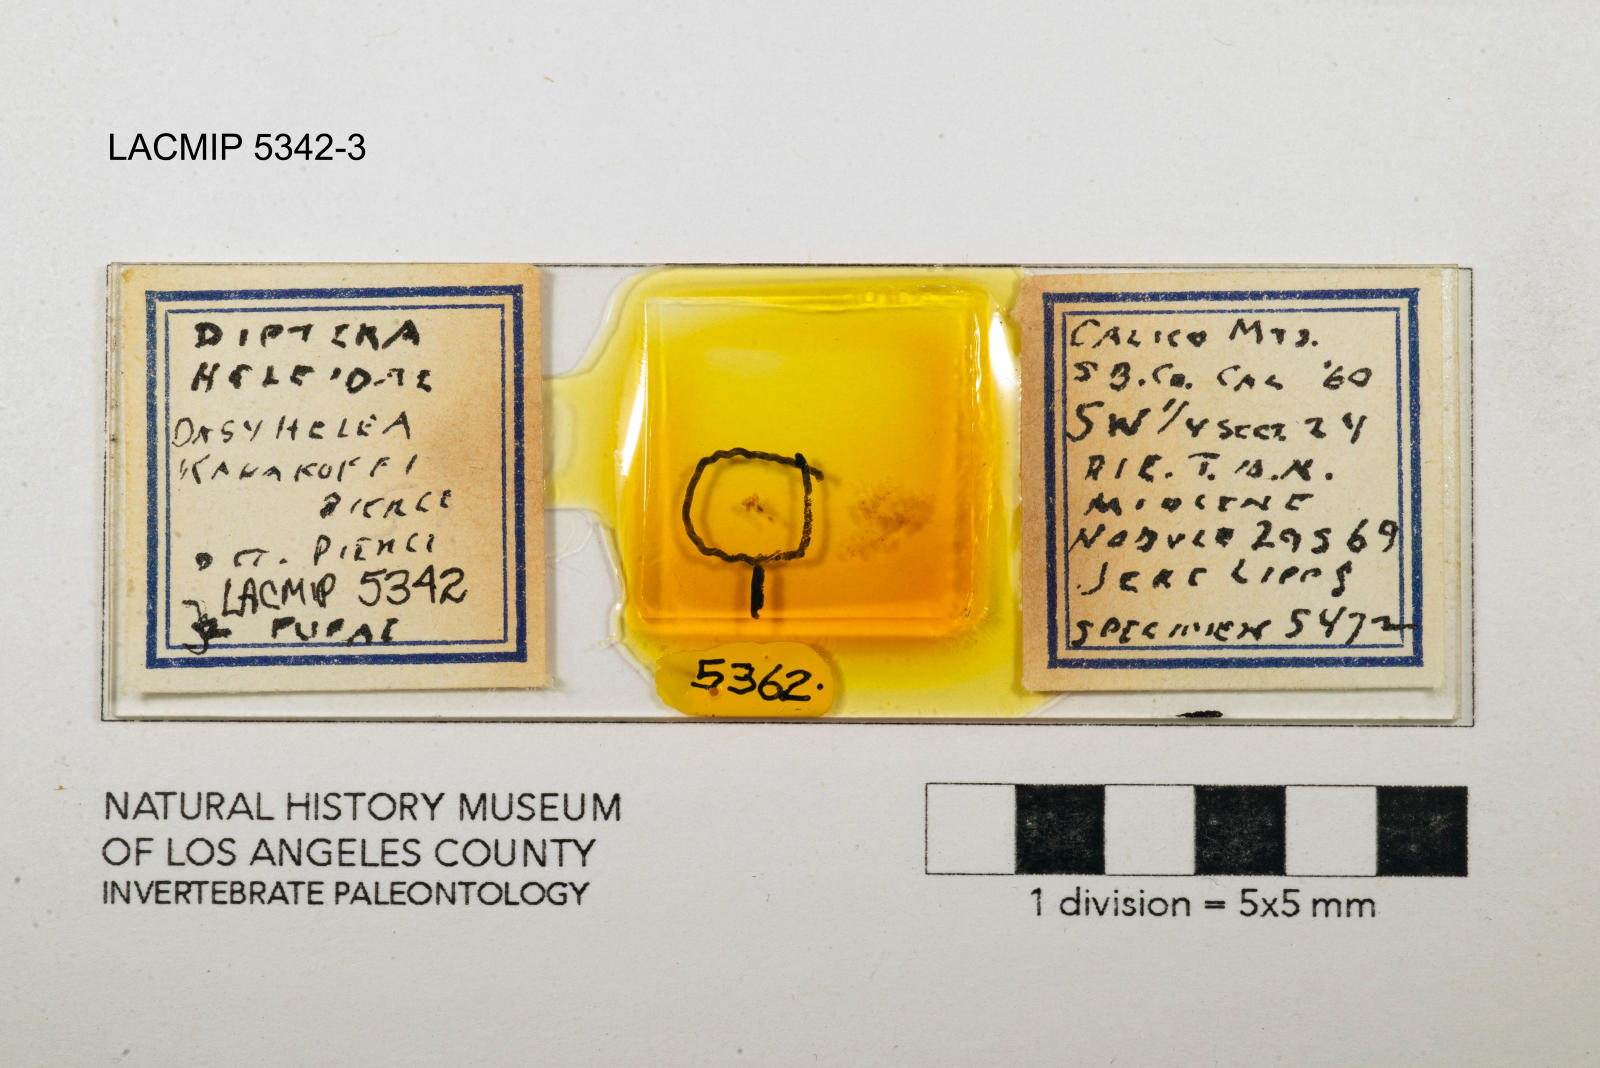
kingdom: Animalia
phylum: Arthropoda
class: Insecta
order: Diptera
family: Ceratopogonidae
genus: Dasyhelea
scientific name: Dasyhelea kanakoffi
